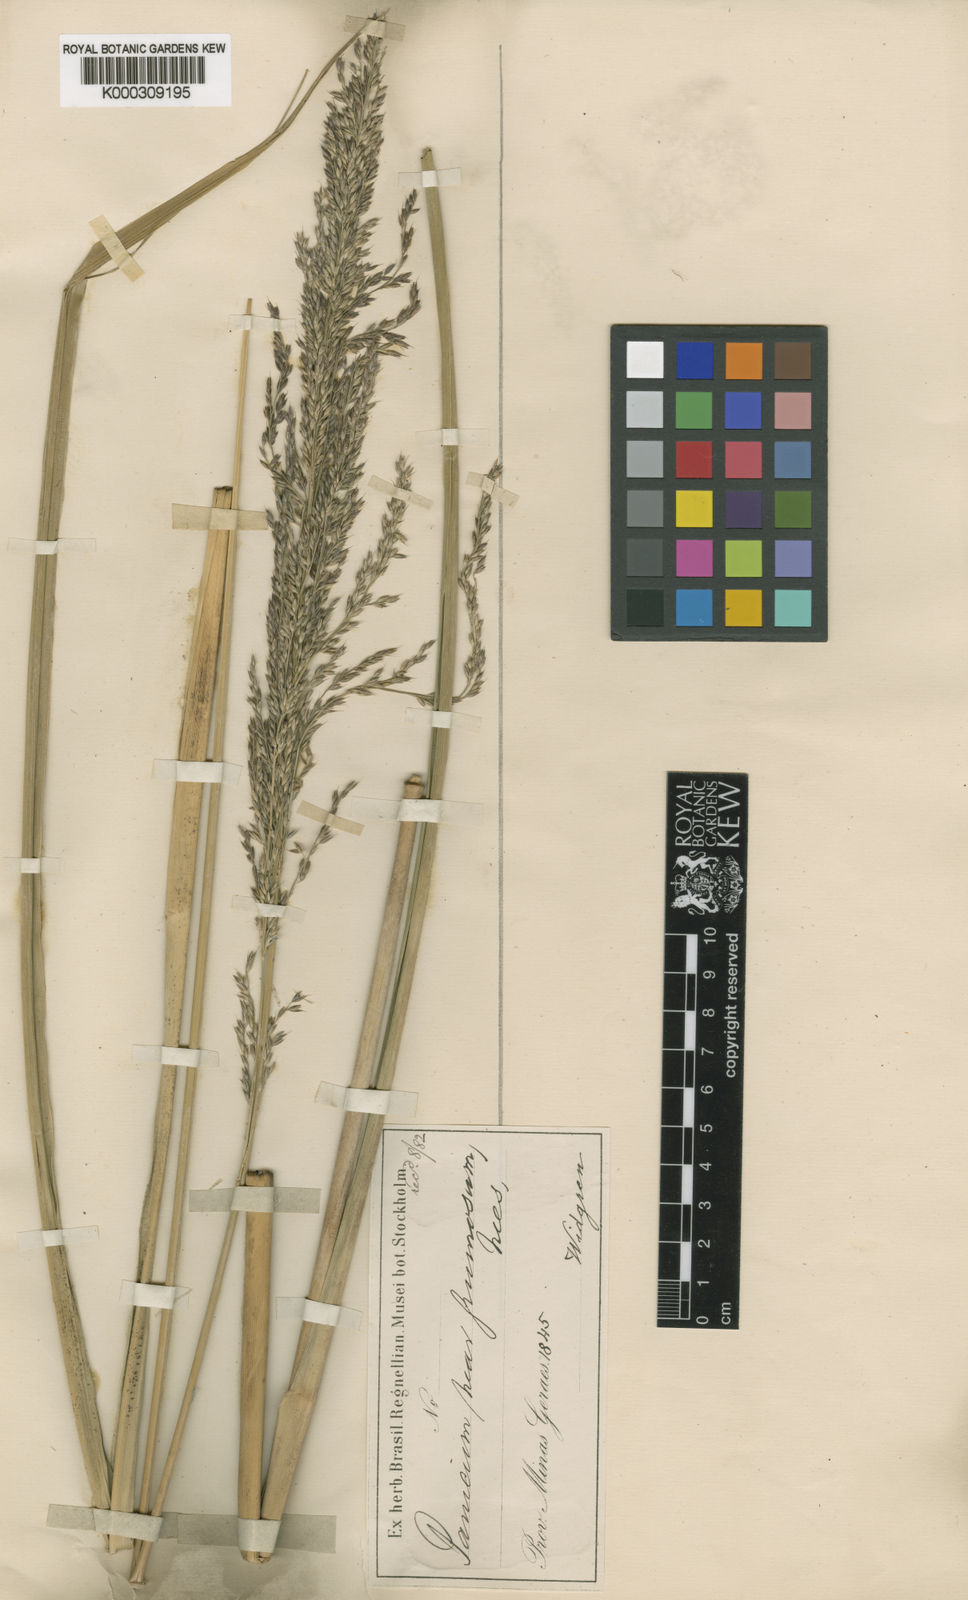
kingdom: Plantae
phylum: Tracheophyta
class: Liliopsida
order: Poales
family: Poaceae
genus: Panicum
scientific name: Panicum
